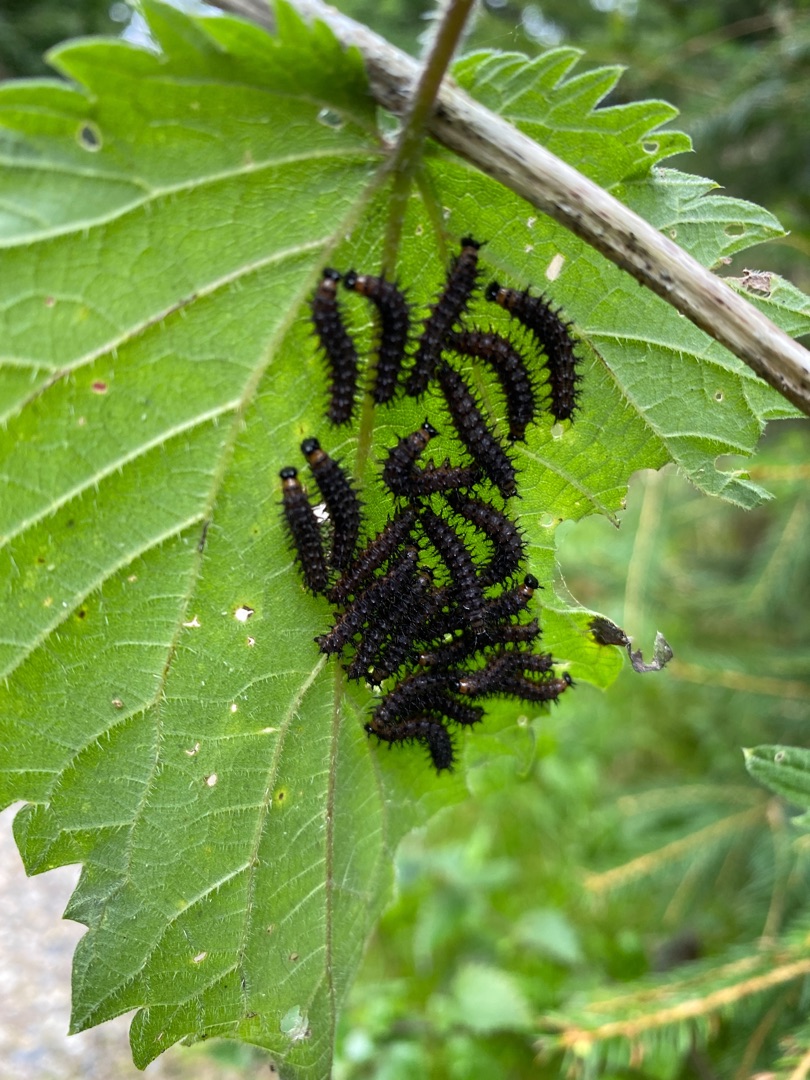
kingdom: Animalia
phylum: Arthropoda
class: Insecta
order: Lepidoptera
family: Nymphalidae
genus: Araschnia
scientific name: Araschnia levana
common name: Nældesommerfugl
